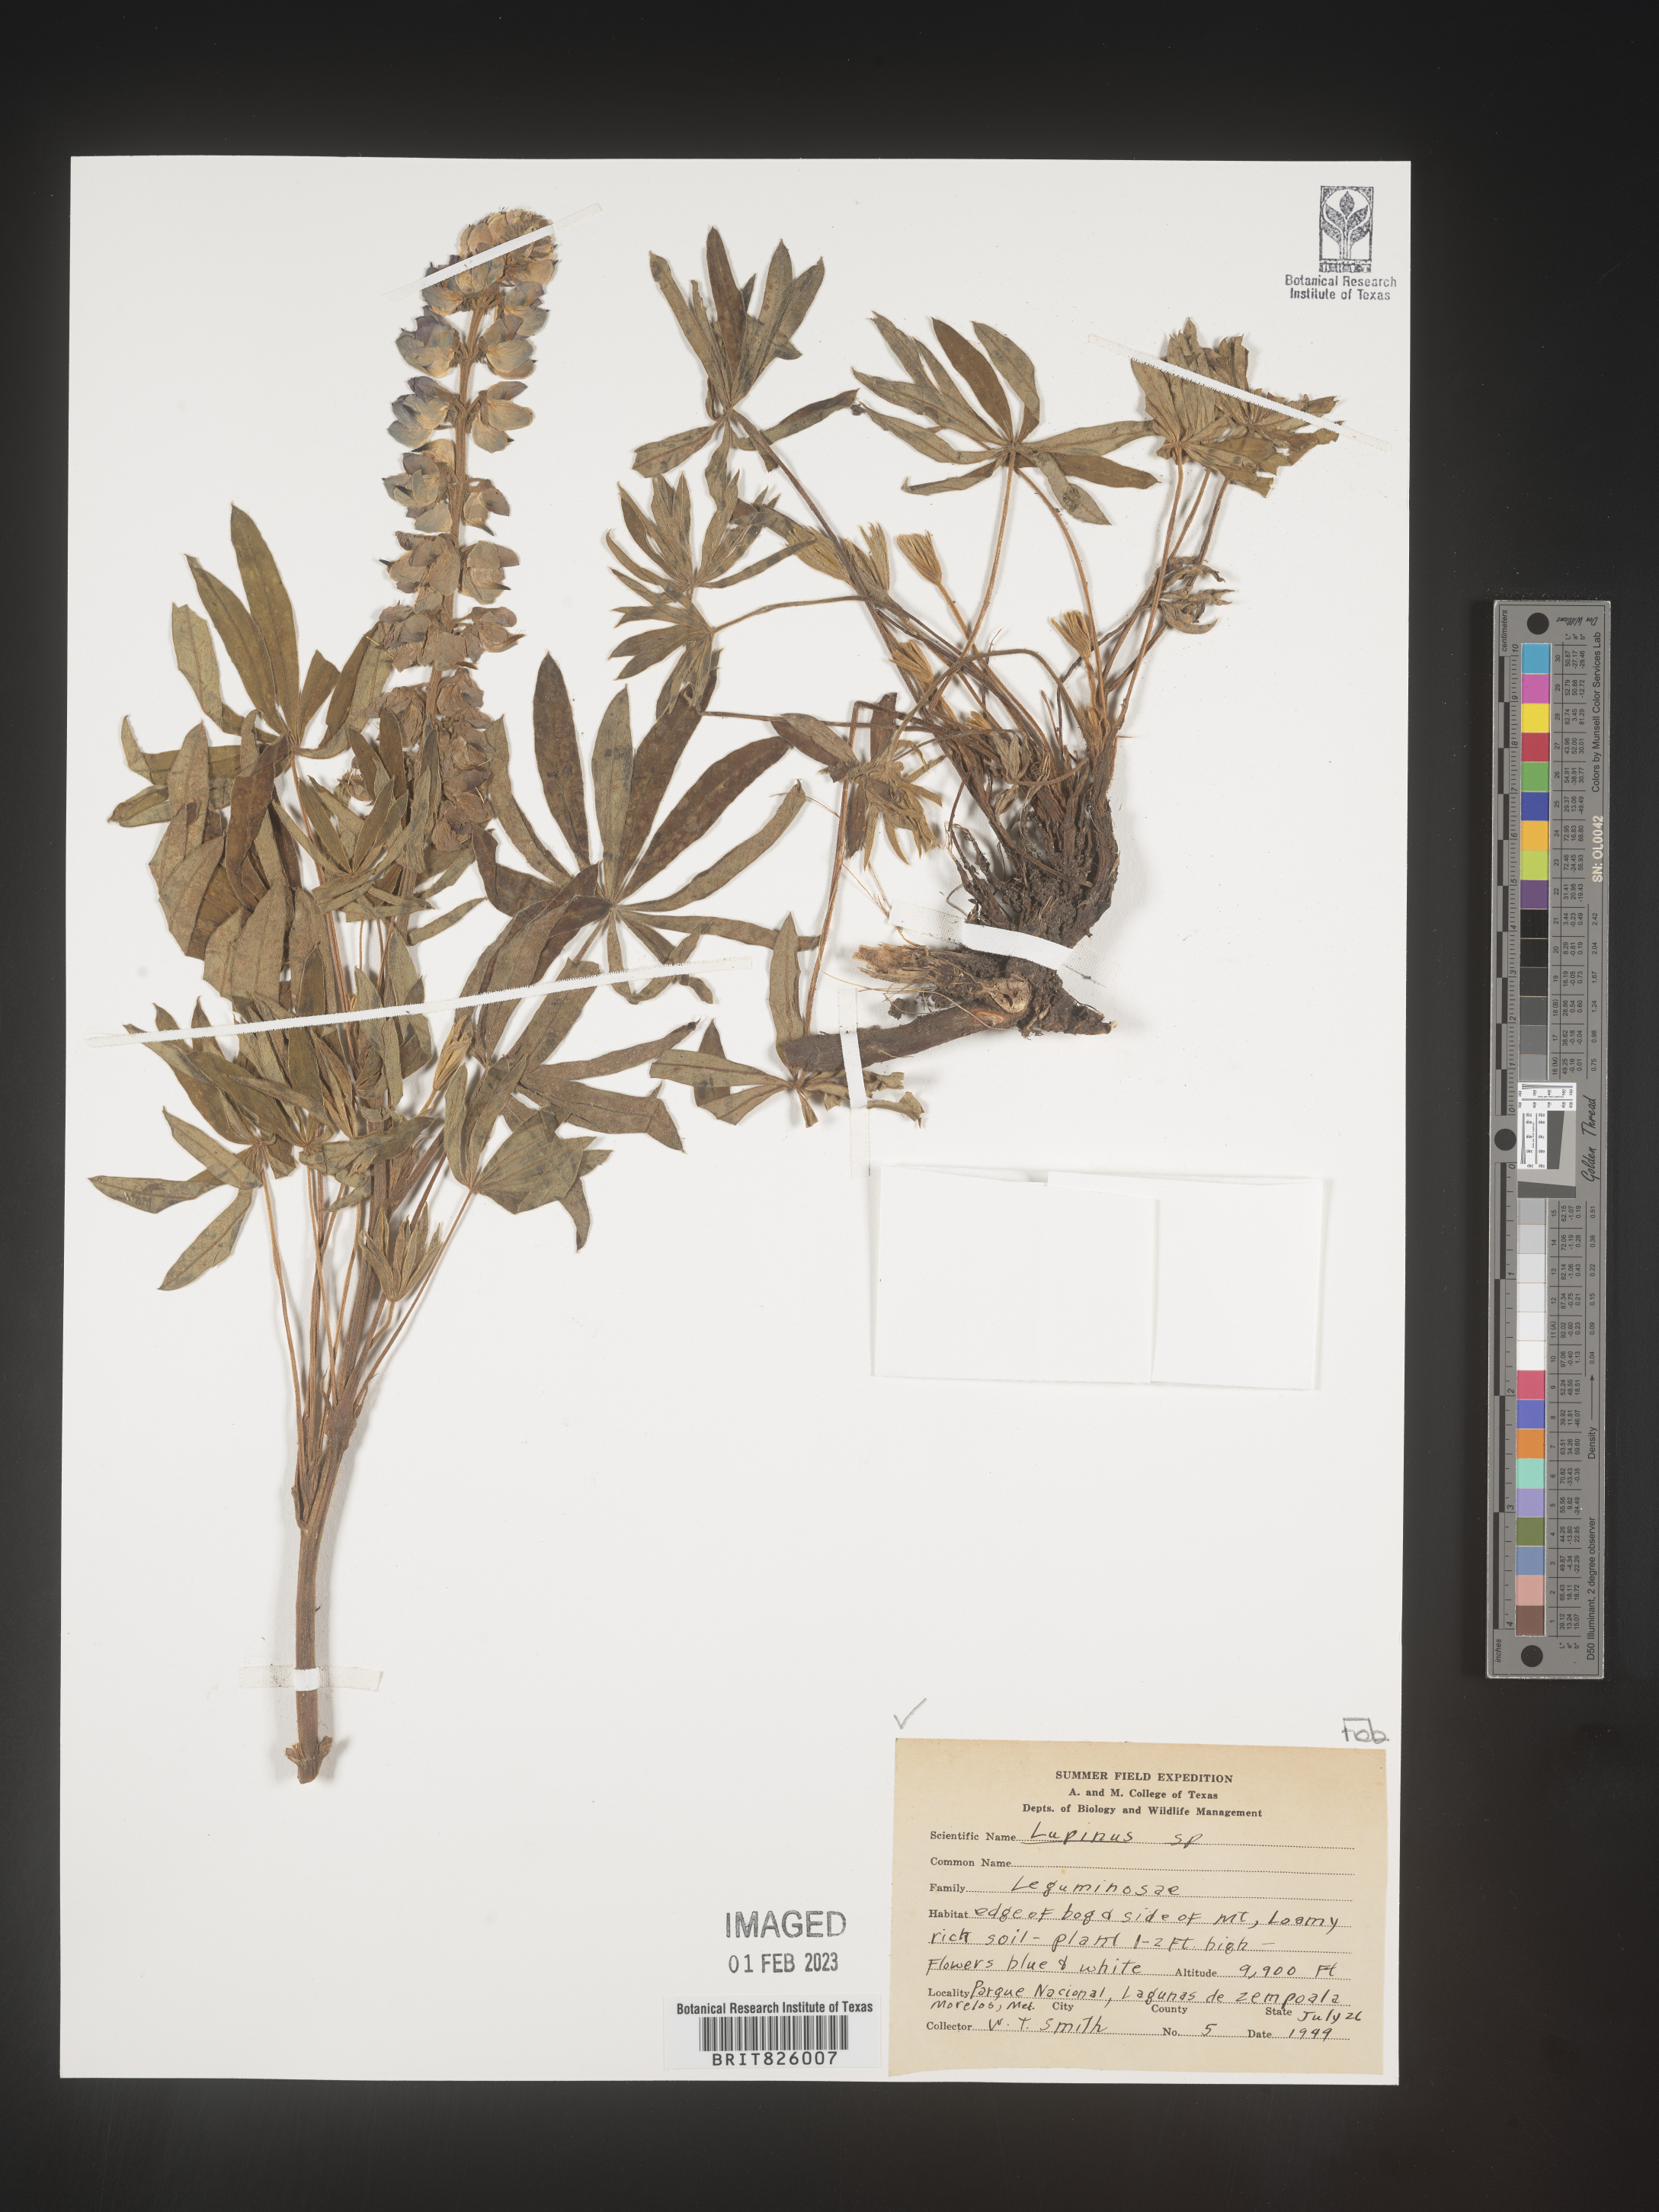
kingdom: Plantae
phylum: Tracheophyta
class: Magnoliopsida
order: Fabales
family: Fabaceae
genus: Lupinus
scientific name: Lupinus
